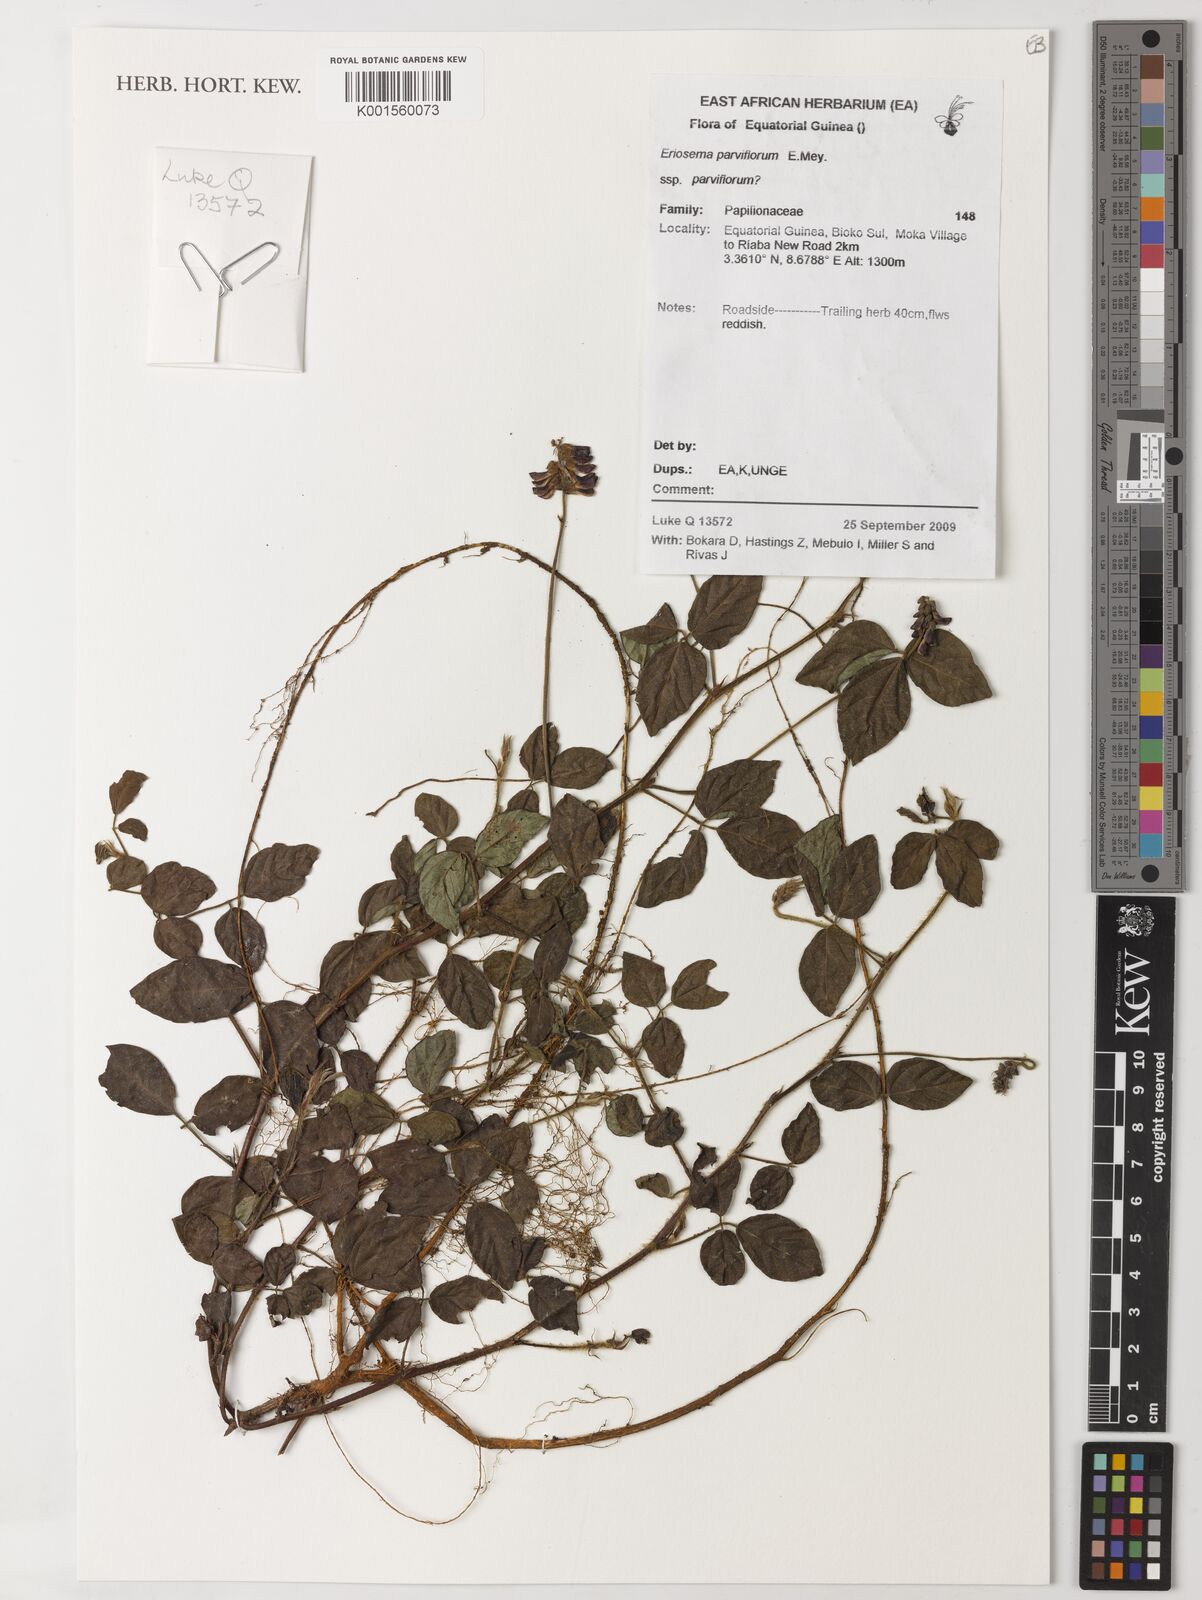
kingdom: Plantae
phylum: Tracheophyta
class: Magnoliopsida
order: Fabales
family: Fabaceae
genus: Eriosema
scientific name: Eriosema parviflorum
